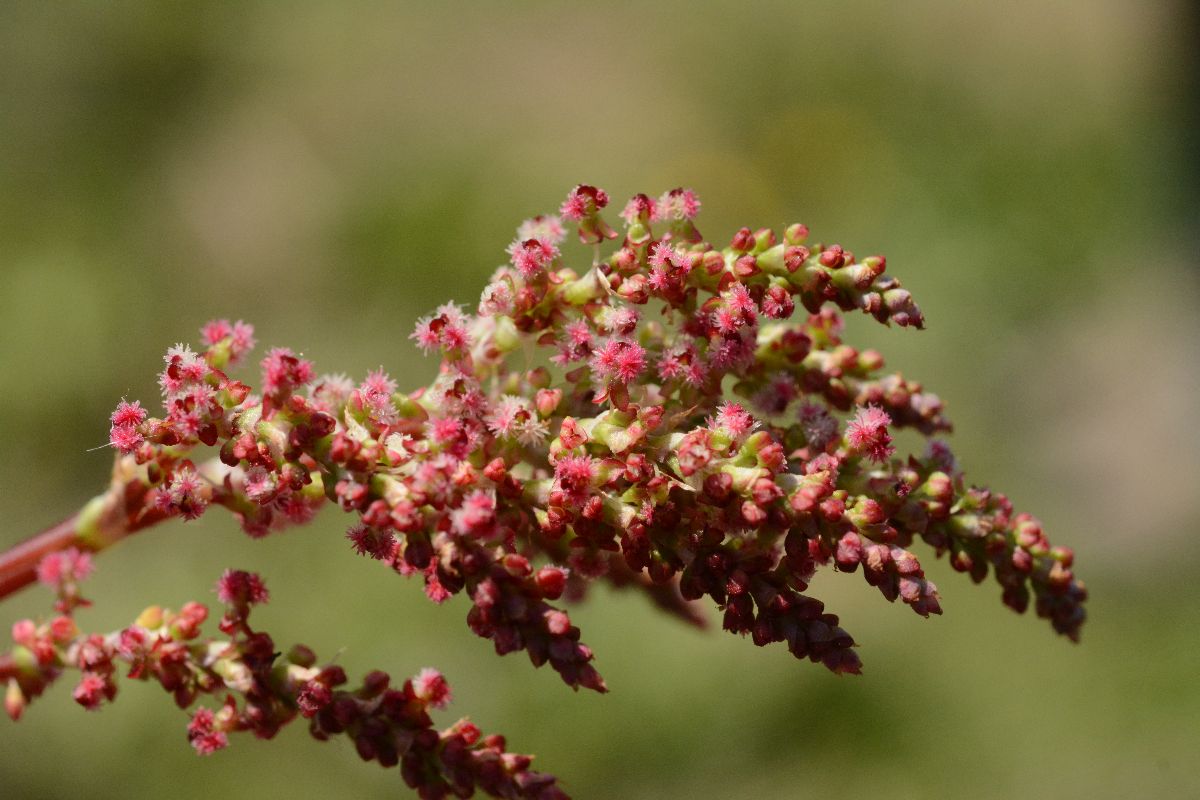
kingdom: Plantae
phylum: Tracheophyta
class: Magnoliopsida
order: Caryophyllales
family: Polygonaceae
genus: Rumex
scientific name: Rumex tuberosus
